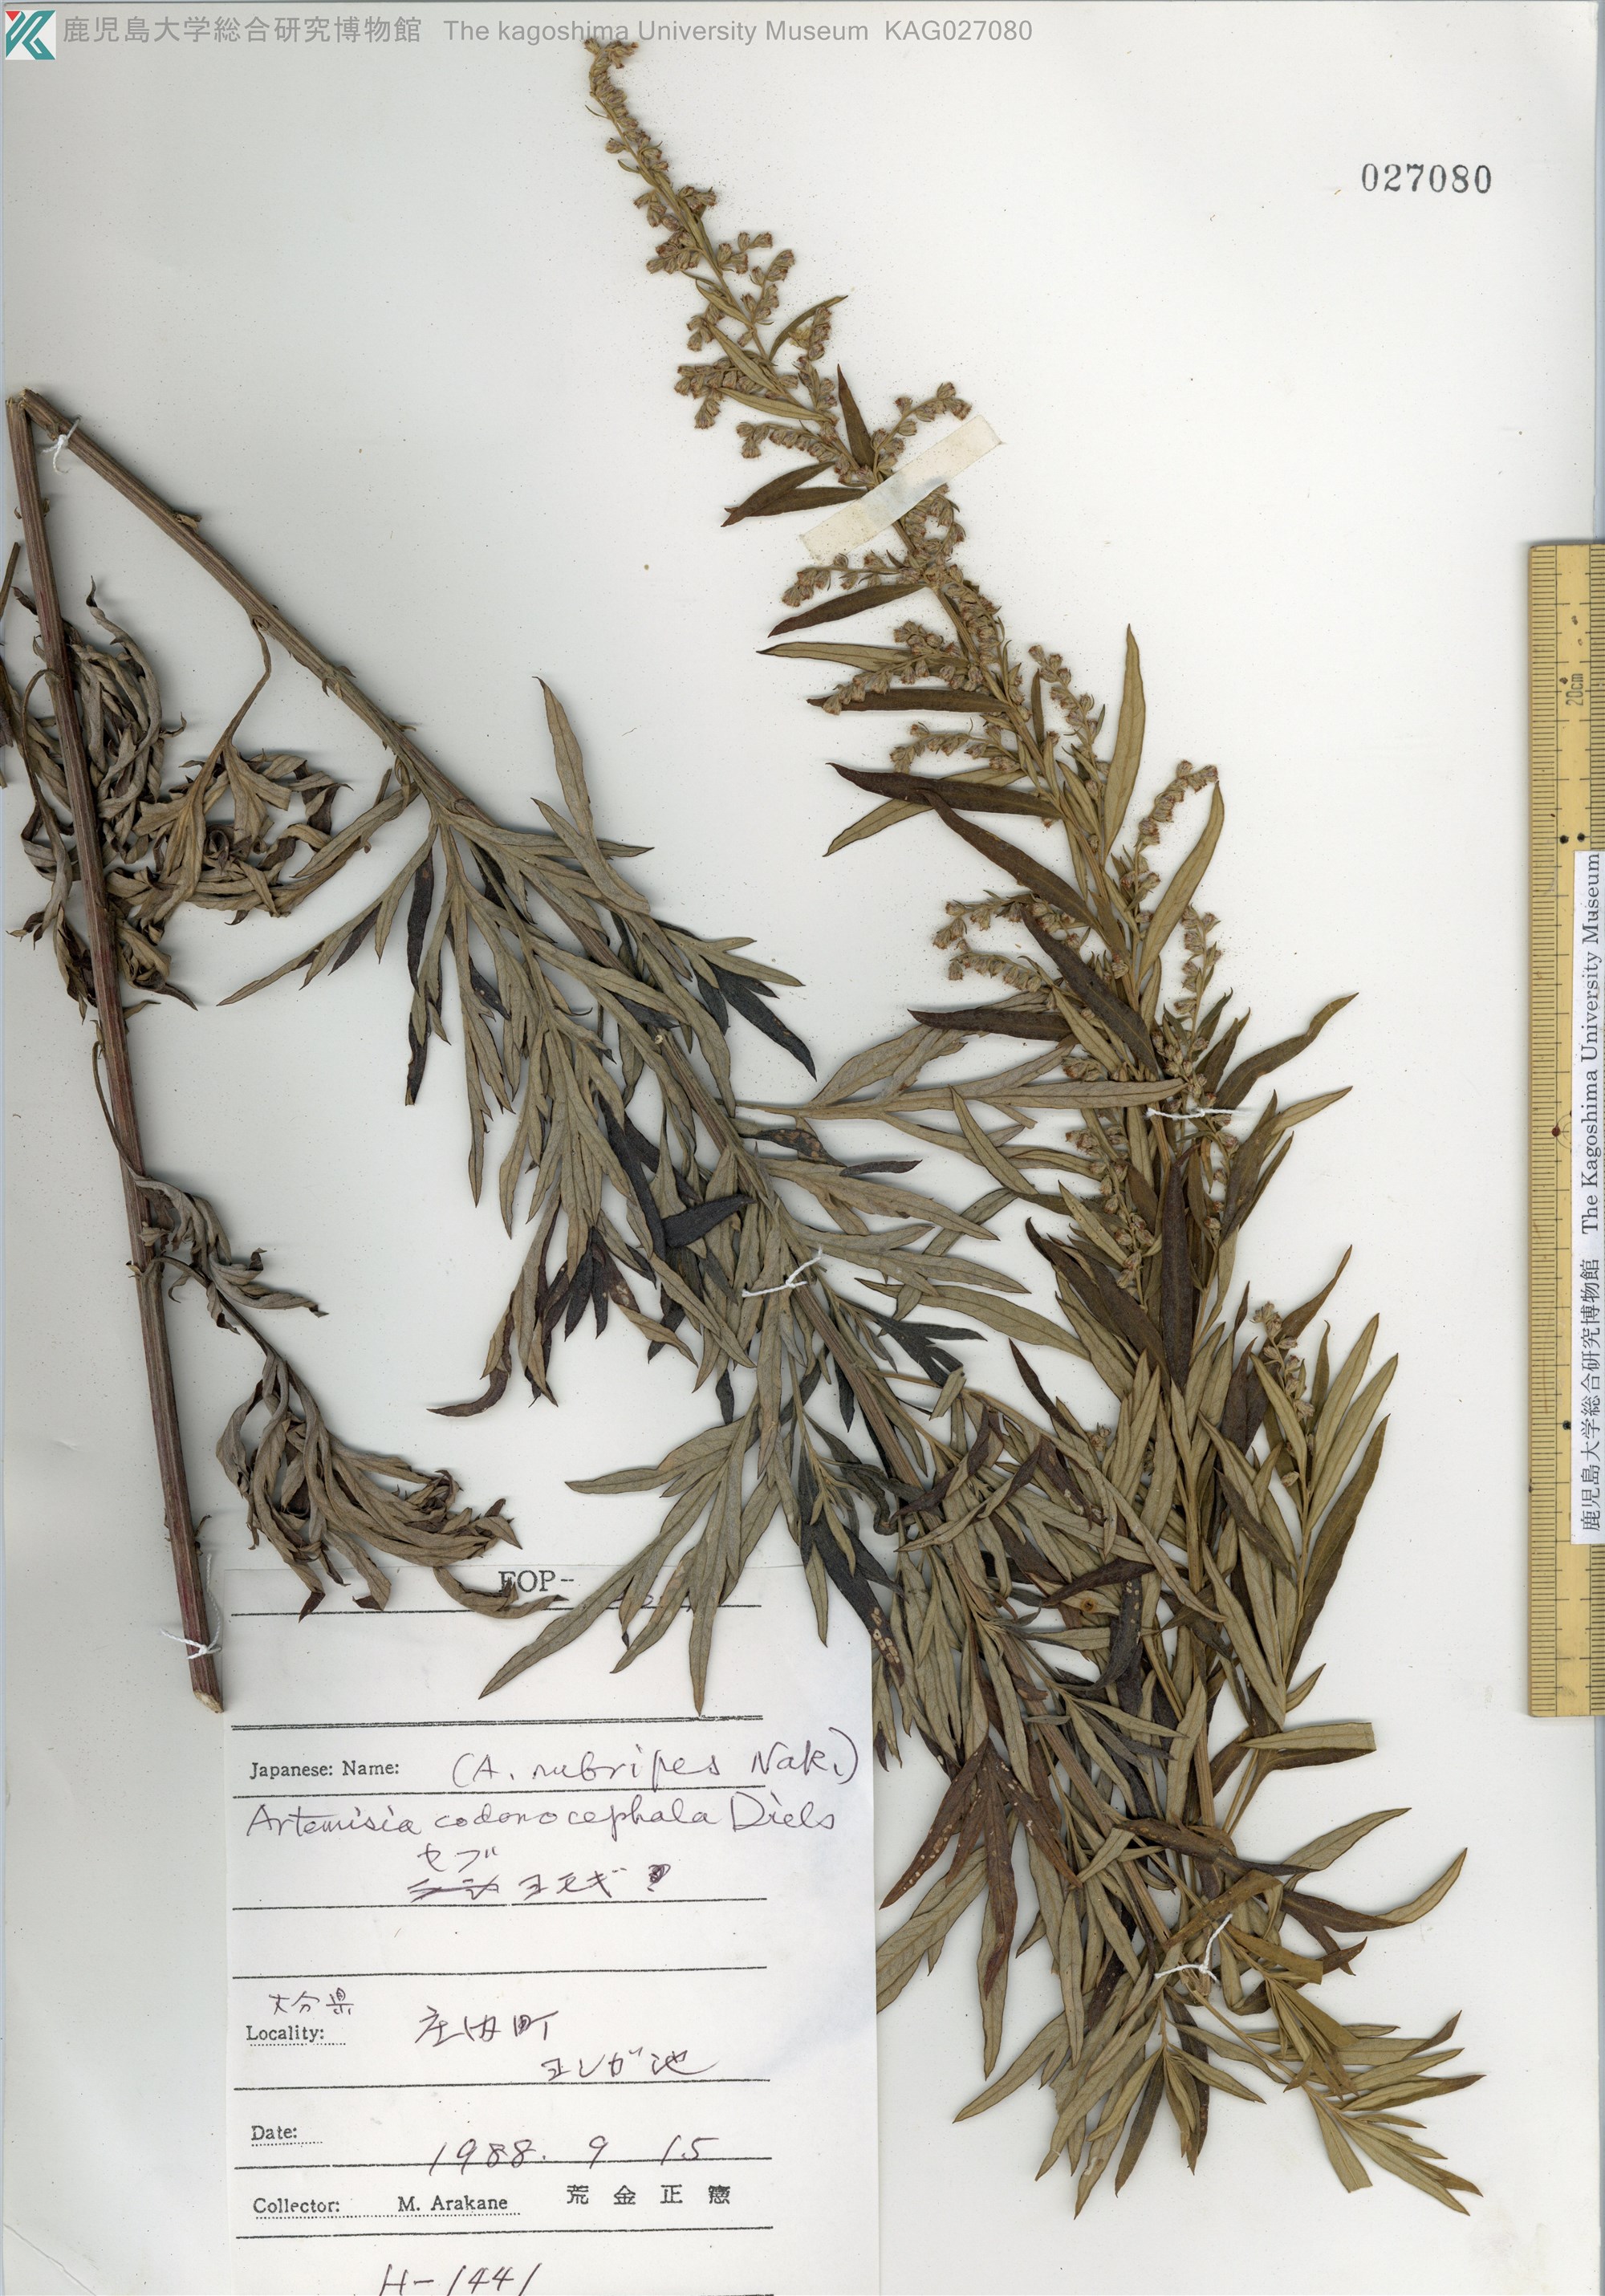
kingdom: Plantae
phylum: Tracheophyta
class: Magnoliopsida
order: Asterales
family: Asteraceae
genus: Artemisia
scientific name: Artemisia umbrosa
